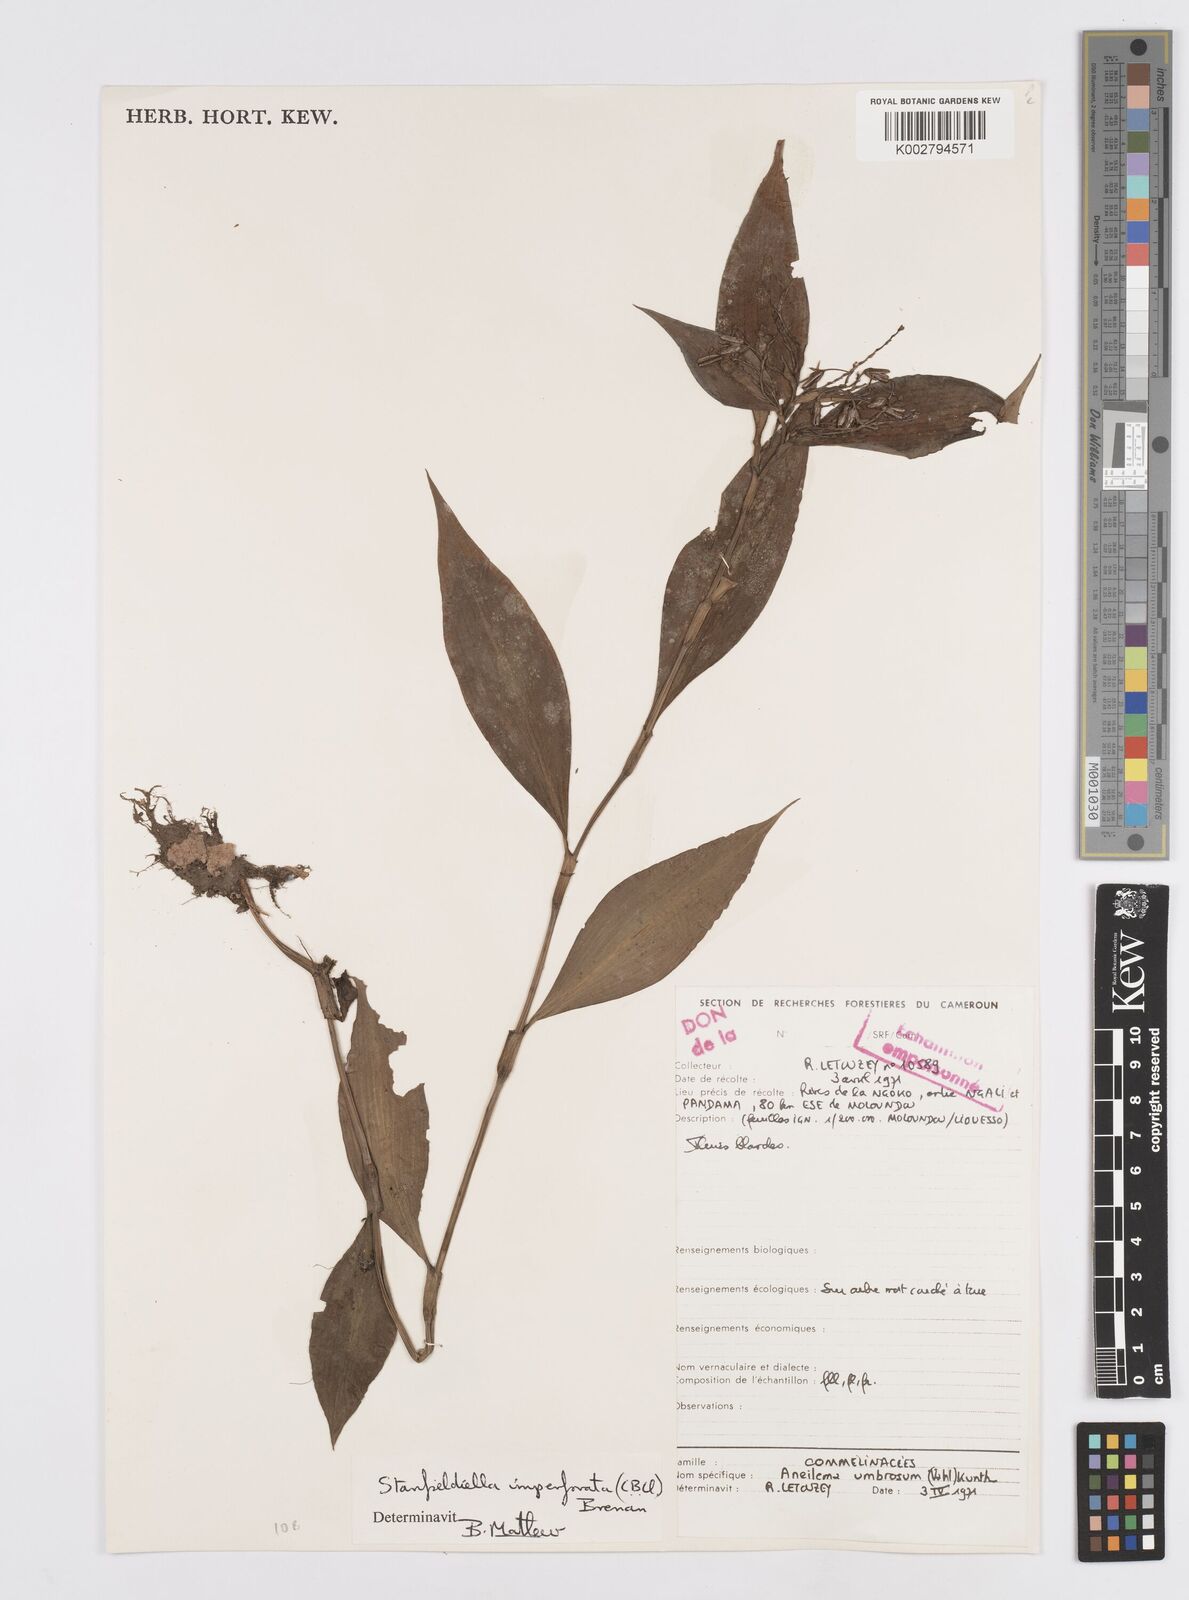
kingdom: Plantae
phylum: Tracheophyta
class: Liliopsida
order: Commelinales
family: Commelinaceae
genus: Stanfieldiella
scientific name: Stanfieldiella imperforata
